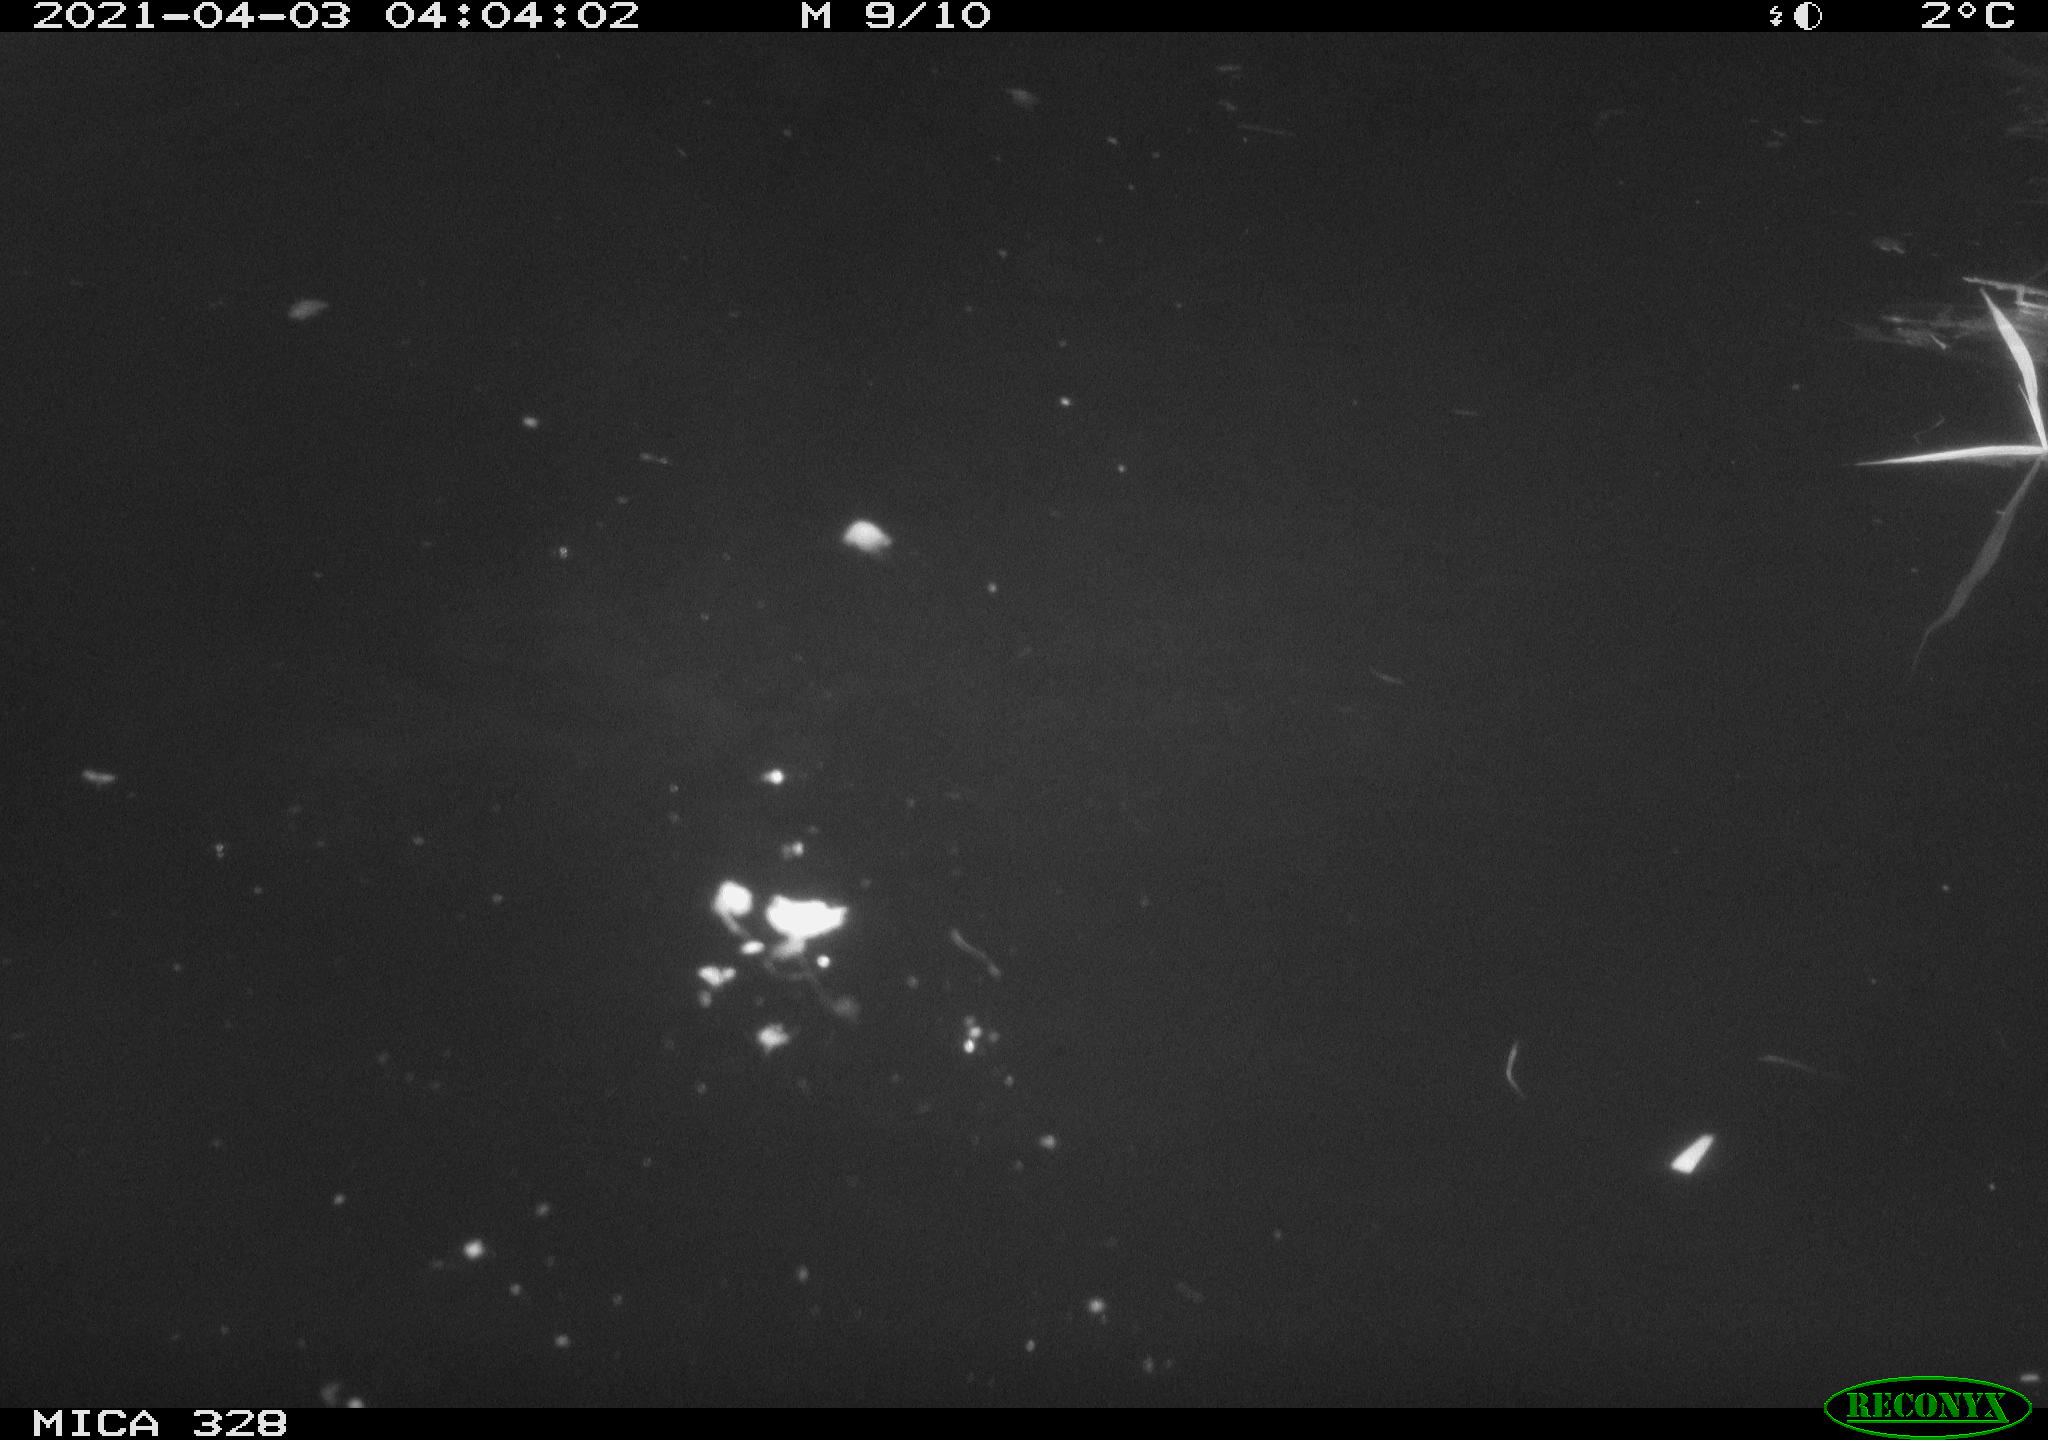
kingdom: Animalia
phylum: Chordata
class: Mammalia
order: Rodentia
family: Cricetidae
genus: Ondatra
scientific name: Ondatra zibethicus
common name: Muskrat
